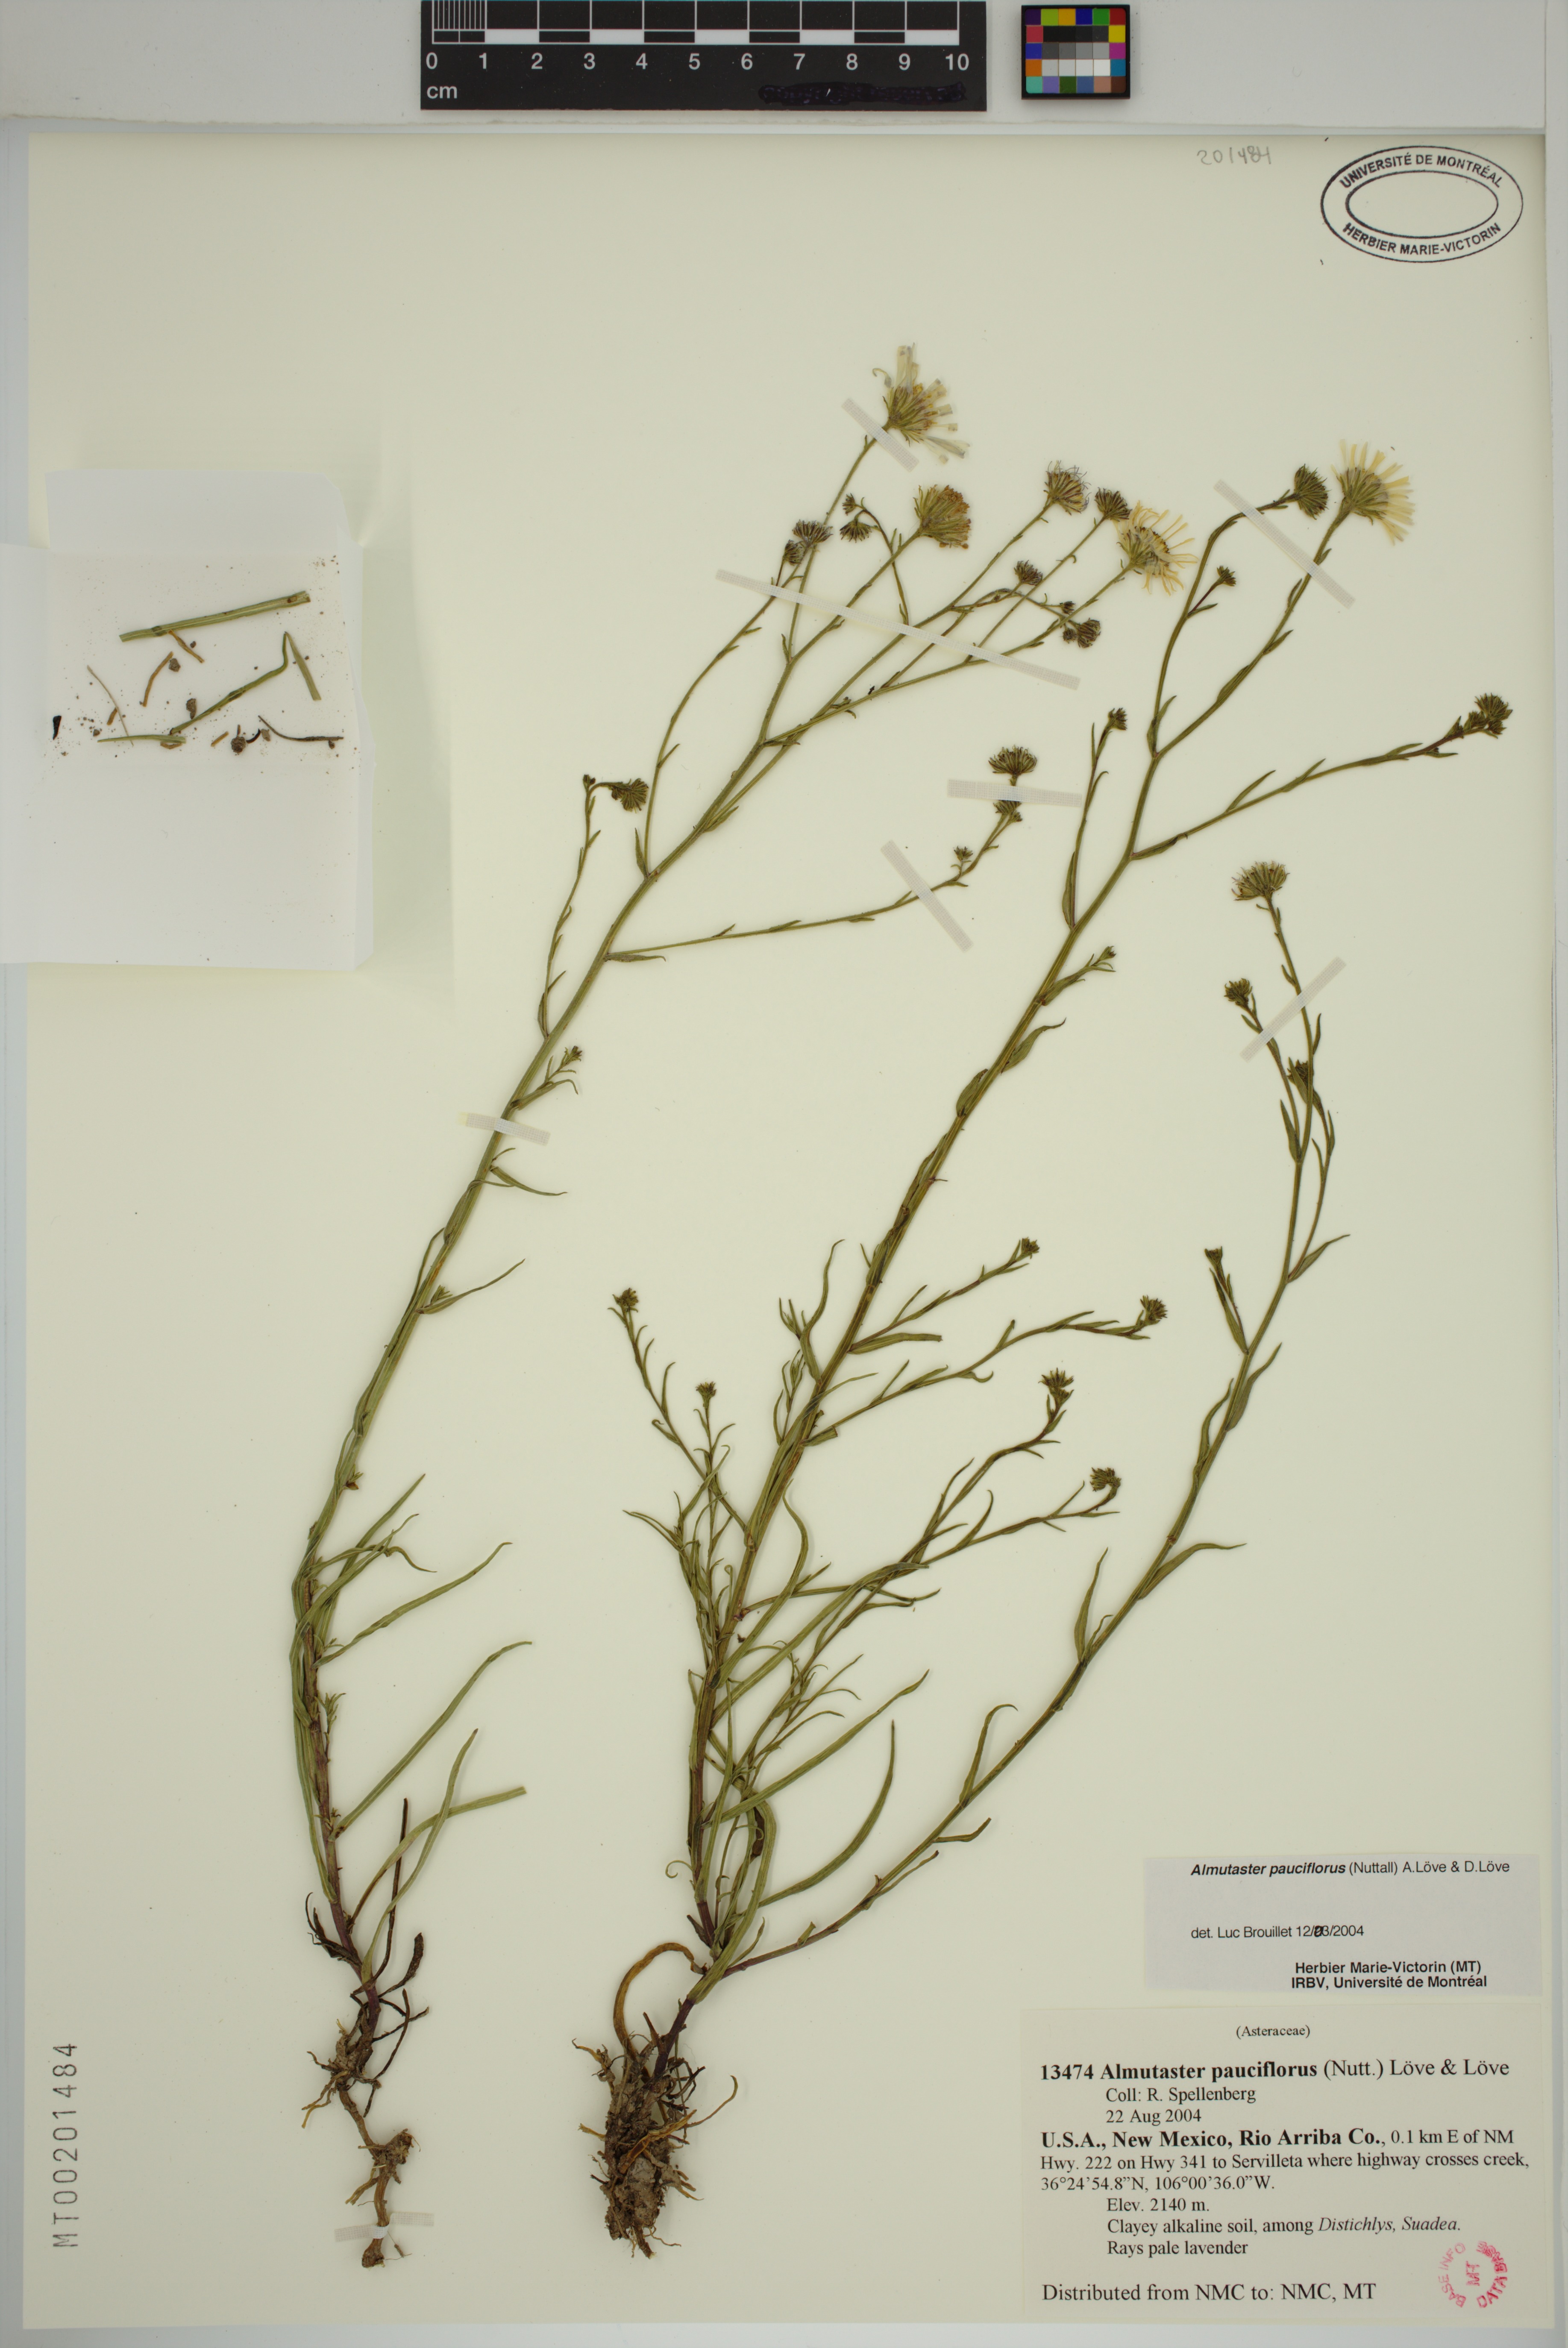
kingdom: Plantae
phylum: Tracheophyta
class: Magnoliopsida
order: Asterales
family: Asteraceae
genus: Almutaster
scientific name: Almutaster pauciflorus
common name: Alkaline aster
